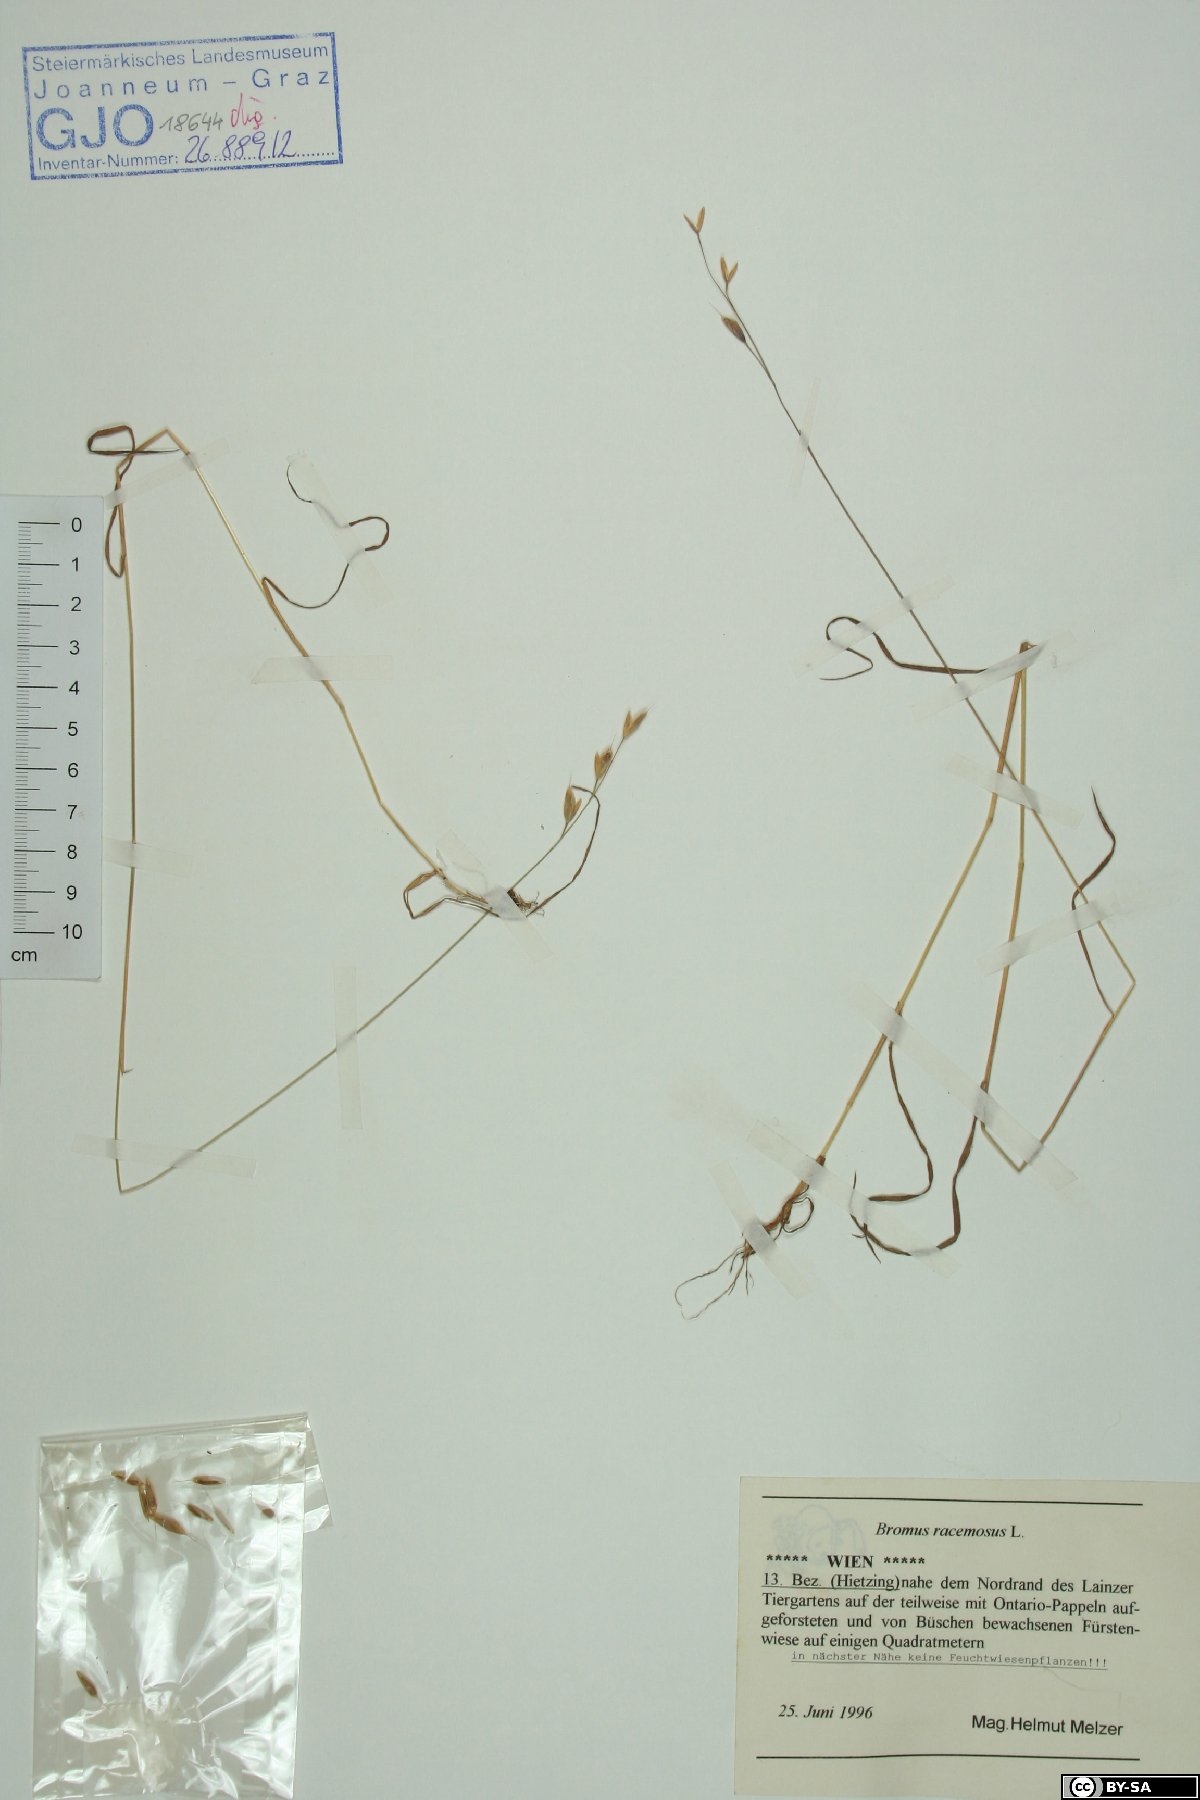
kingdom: Plantae
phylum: Tracheophyta
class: Liliopsida
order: Poales
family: Poaceae
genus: Bromus
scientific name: Bromus racemosus
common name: Bald brome
